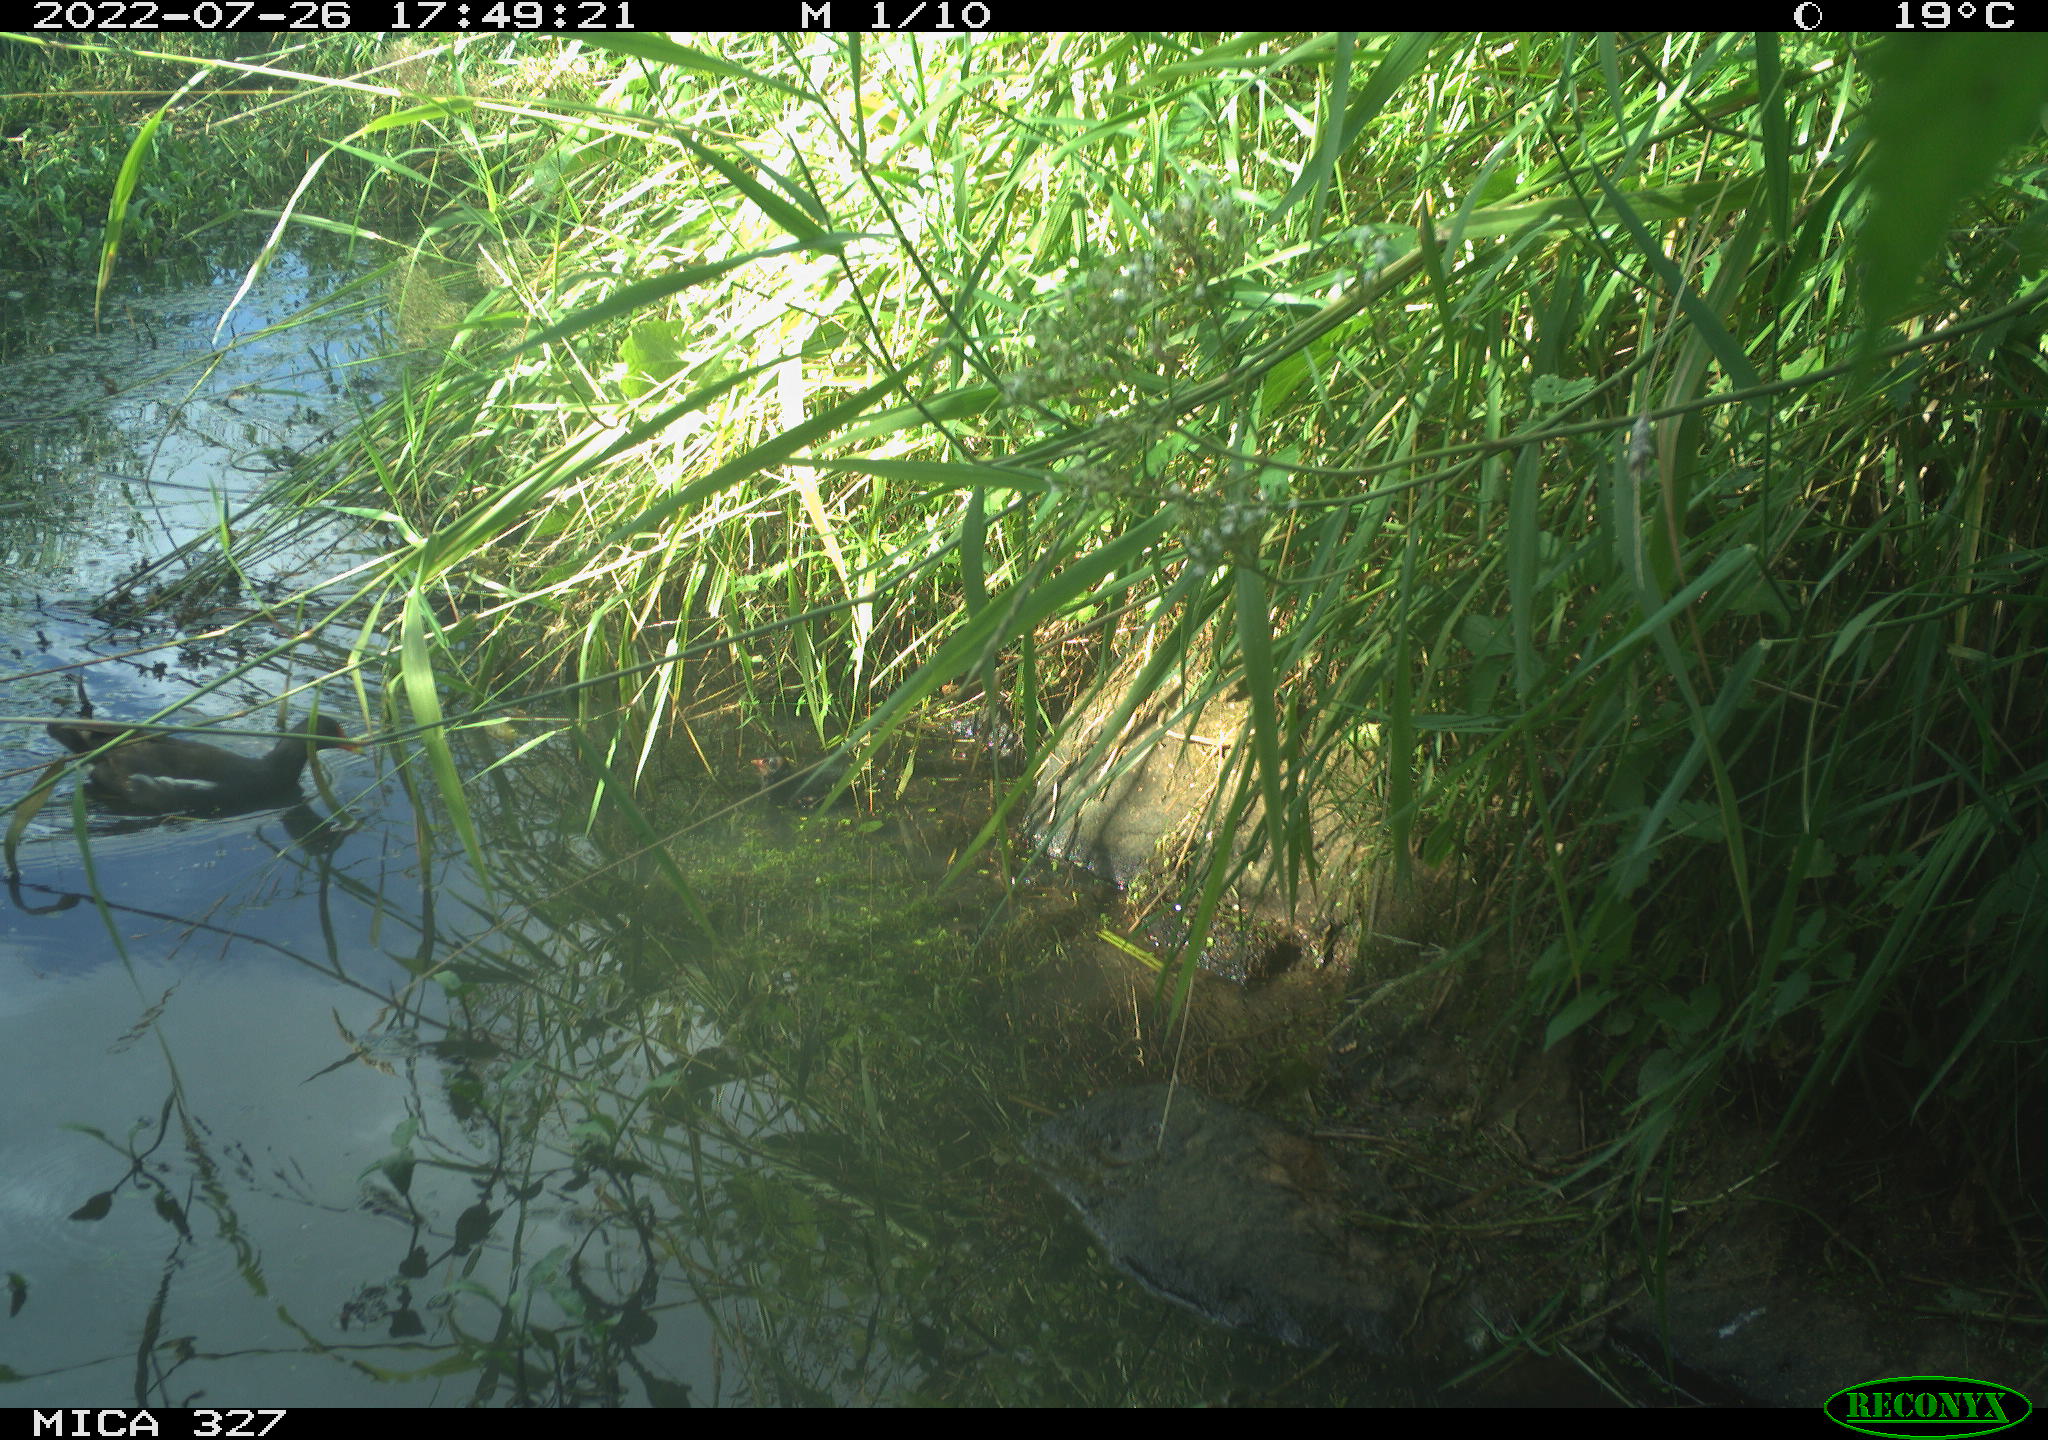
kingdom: Animalia
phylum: Chordata
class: Aves
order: Gruiformes
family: Rallidae
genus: Gallinula
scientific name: Gallinula chloropus
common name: Common moorhen
